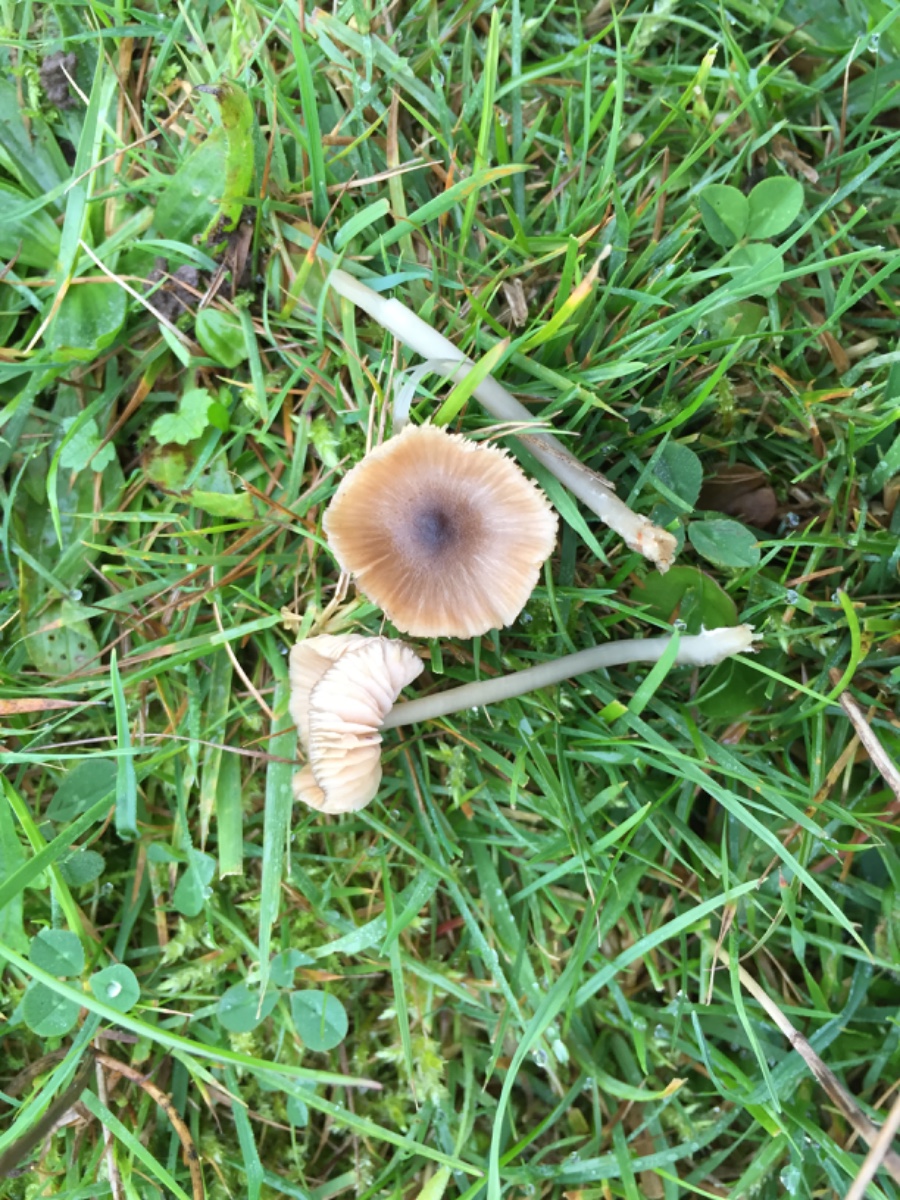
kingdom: Fungi
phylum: Basidiomycota
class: Agaricomycetes
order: Agaricales
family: Entolomataceae
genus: Entoloma
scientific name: Entoloma exile
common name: rødplettet rødblad
